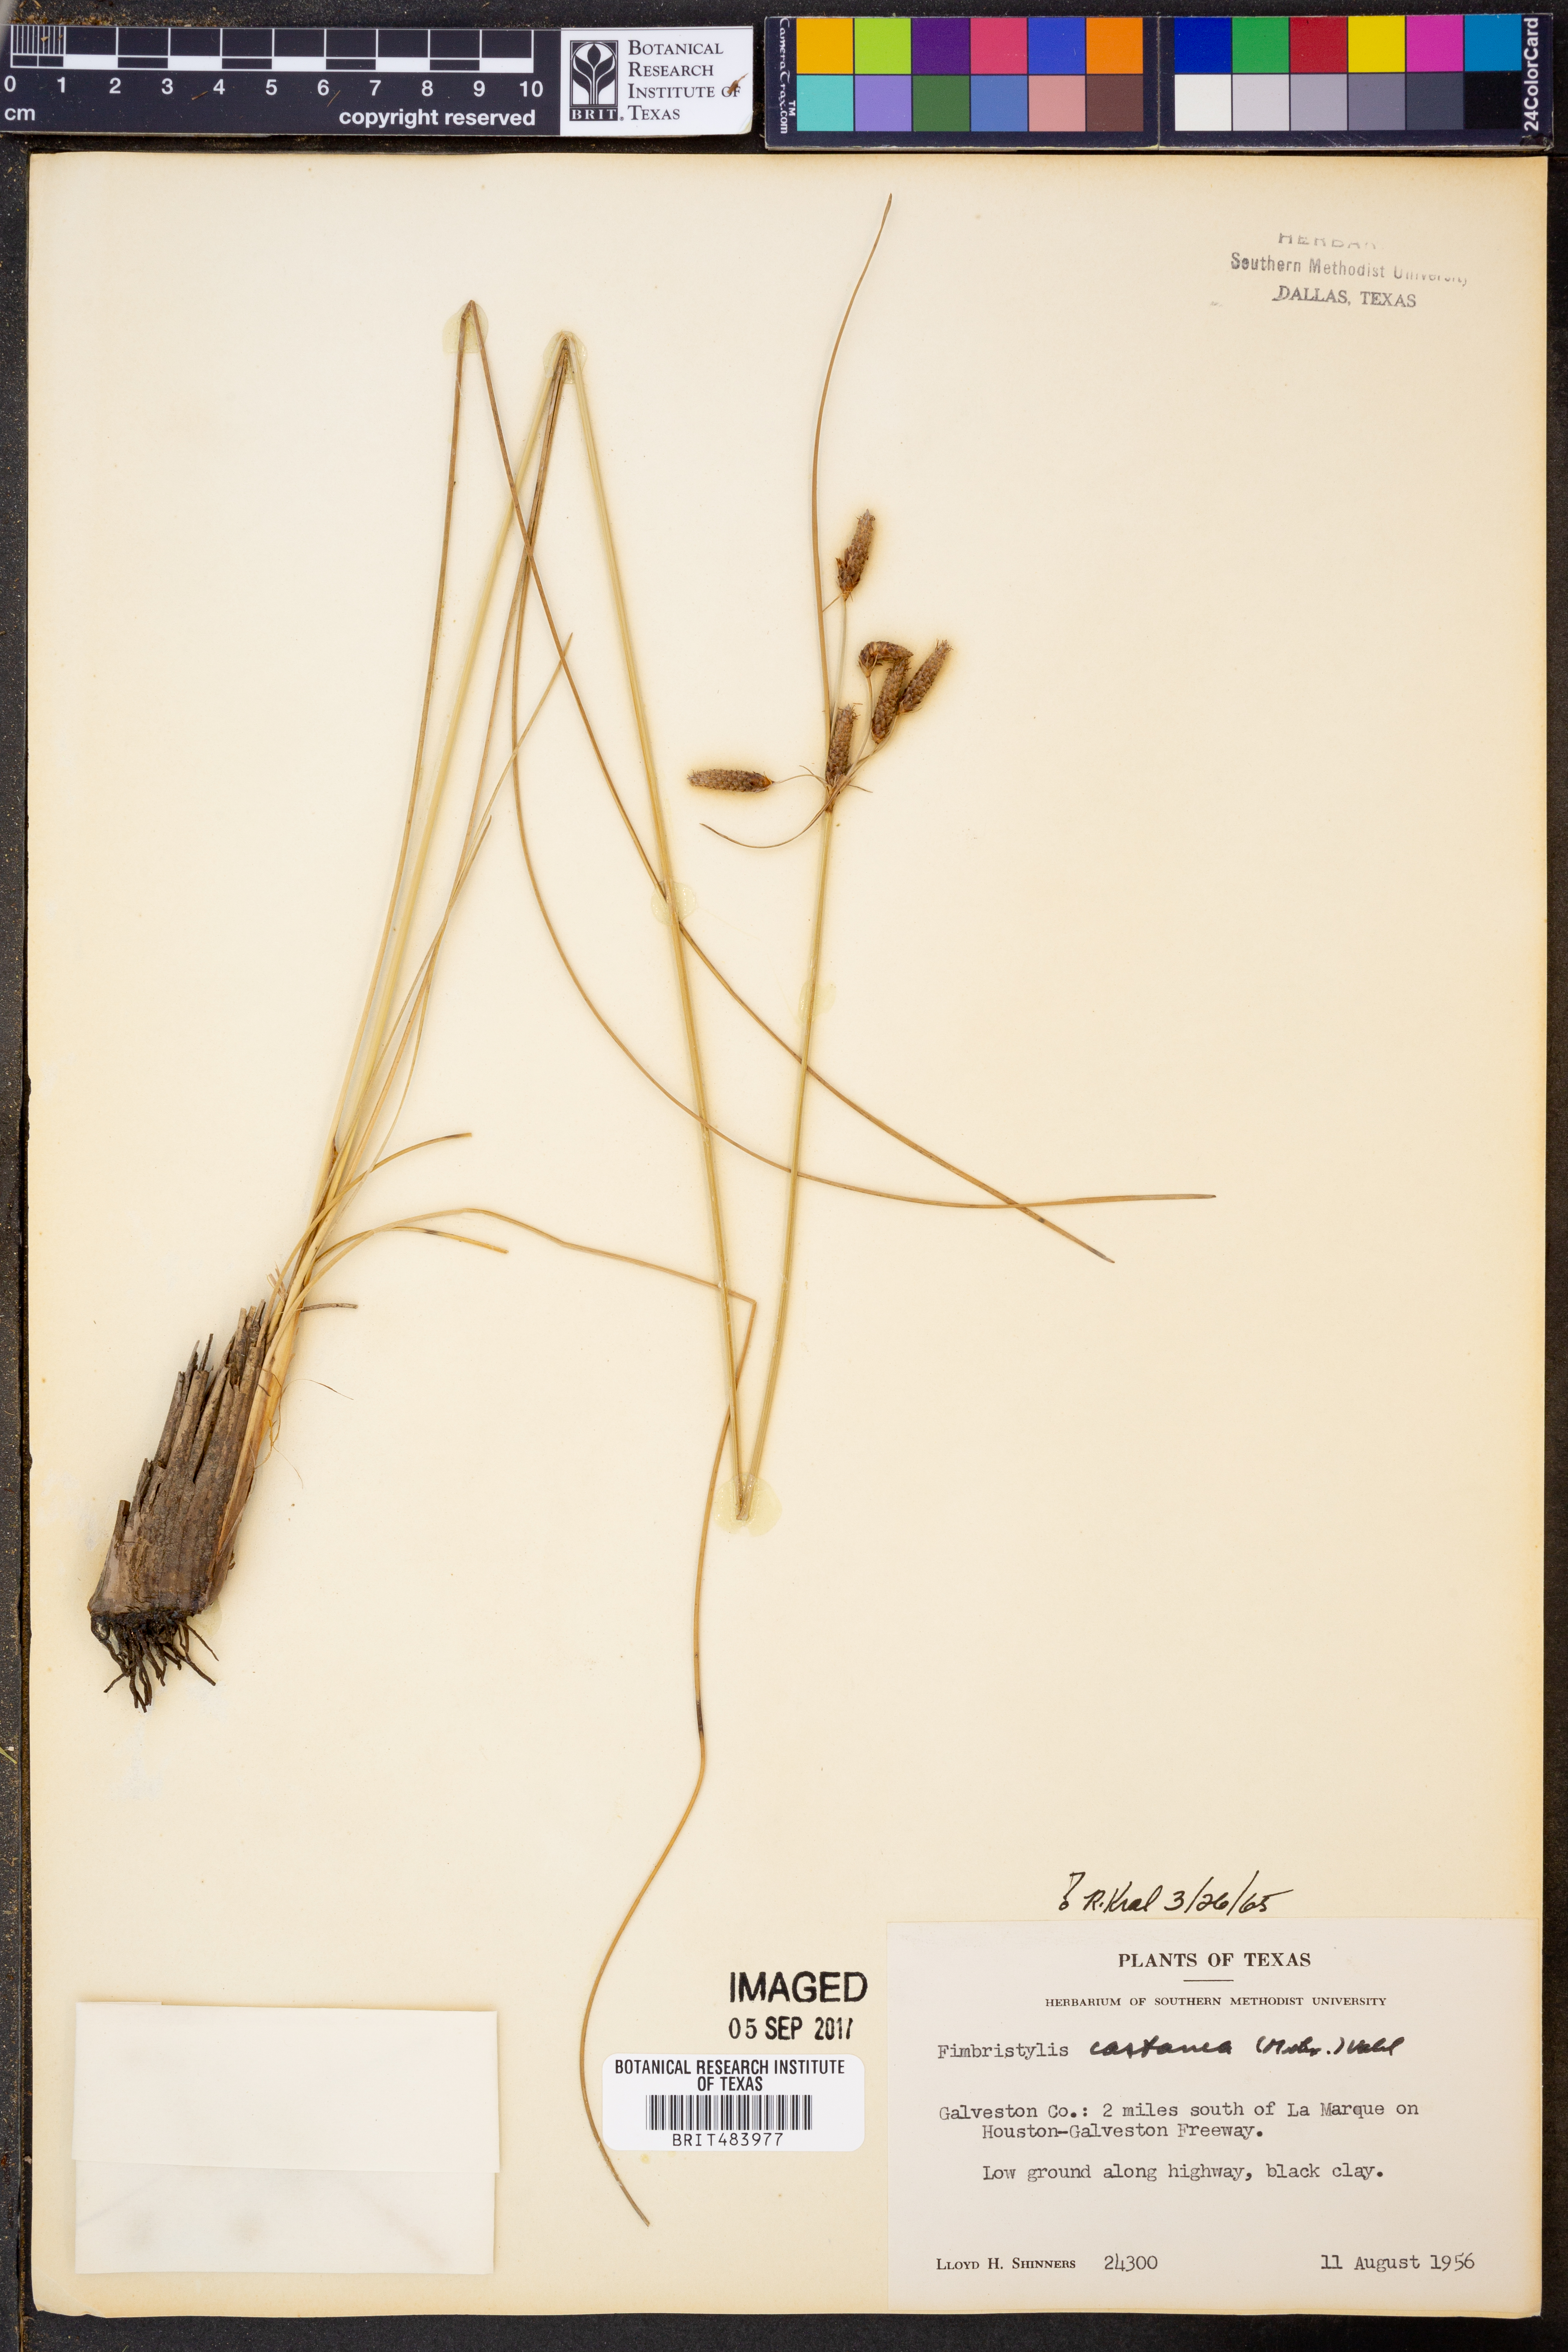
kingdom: Plantae
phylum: Tracheophyta
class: Liliopsida
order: Poales
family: Cyperaceae
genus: Fimbristylis
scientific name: Fimbristylis spadicea
